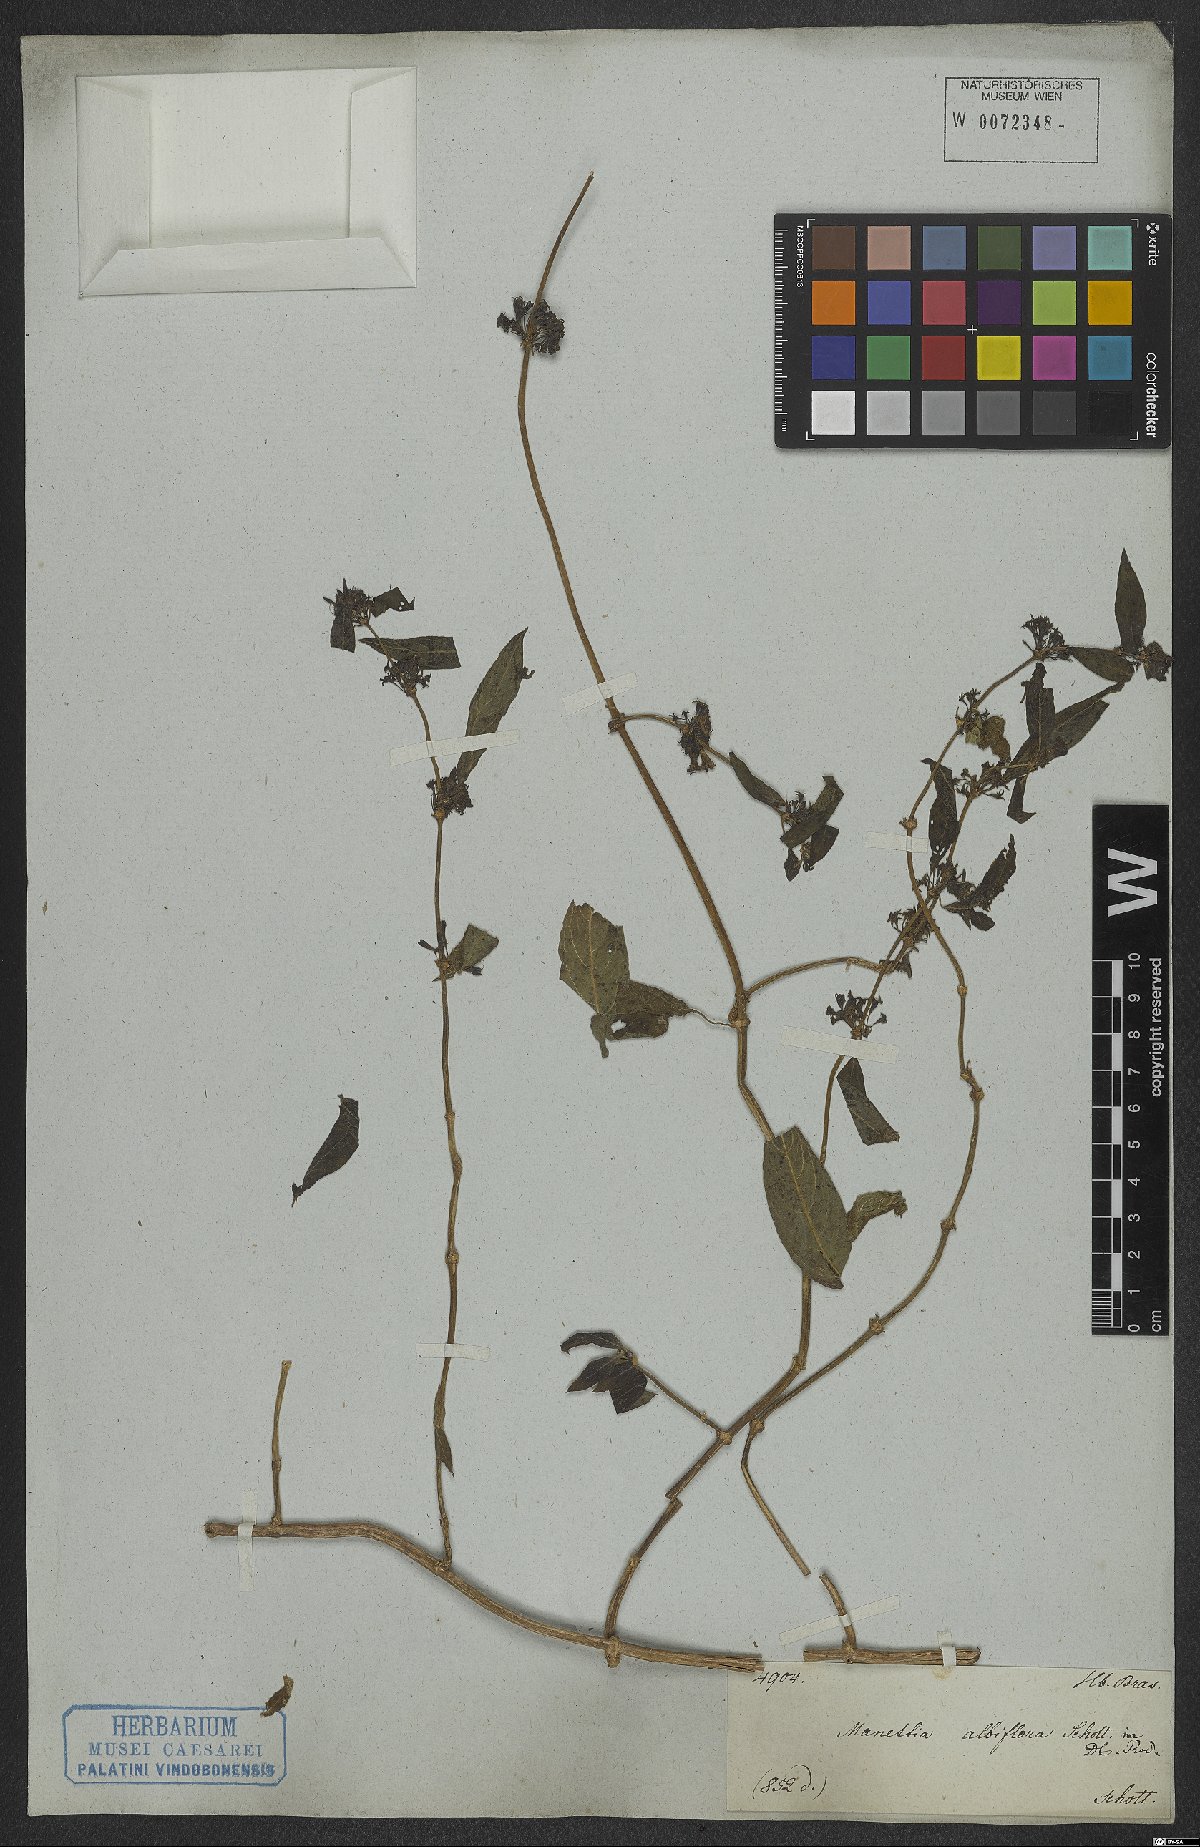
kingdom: Plantae
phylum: Tracheophyta
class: Magnoliopsida
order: Gentianales
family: Rubiaceae
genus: Manettia
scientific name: Manettia congesta
